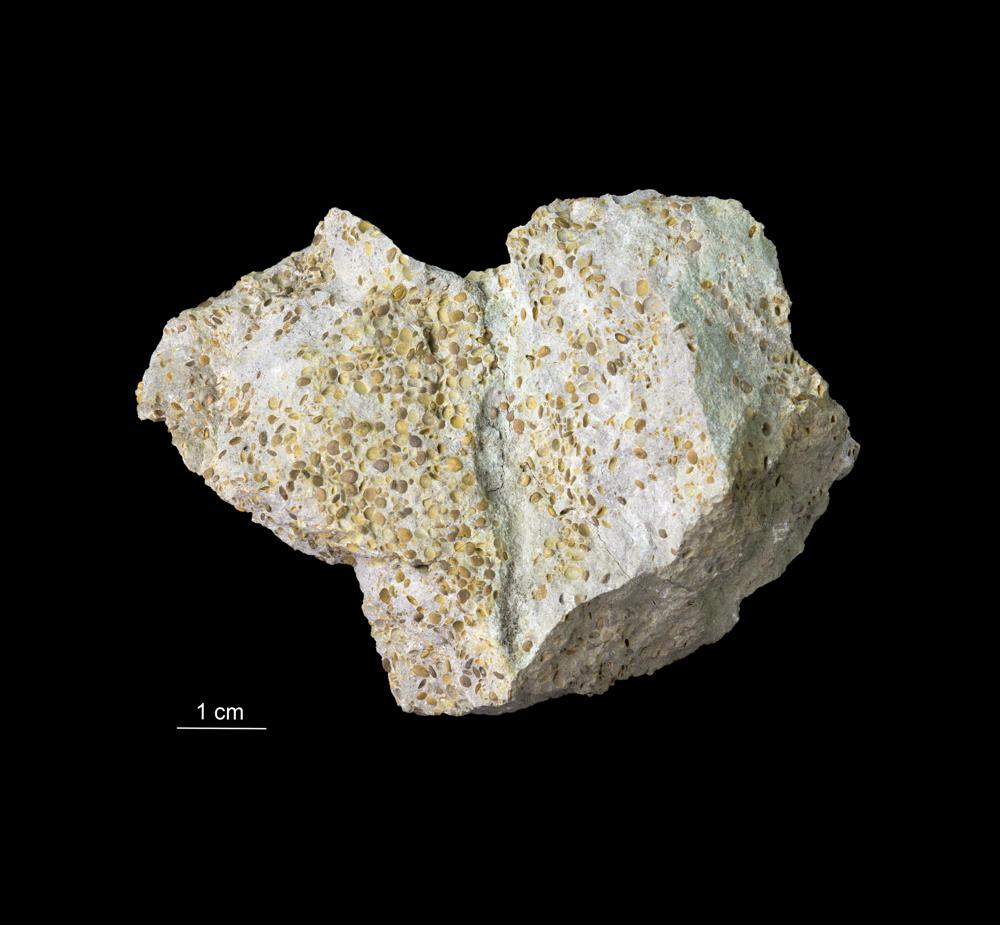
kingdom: Animalia
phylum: Arthropoda
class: Trilobita
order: Phacopida
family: Pterygometopidae
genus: Estoniops
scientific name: Estoniops panderi
